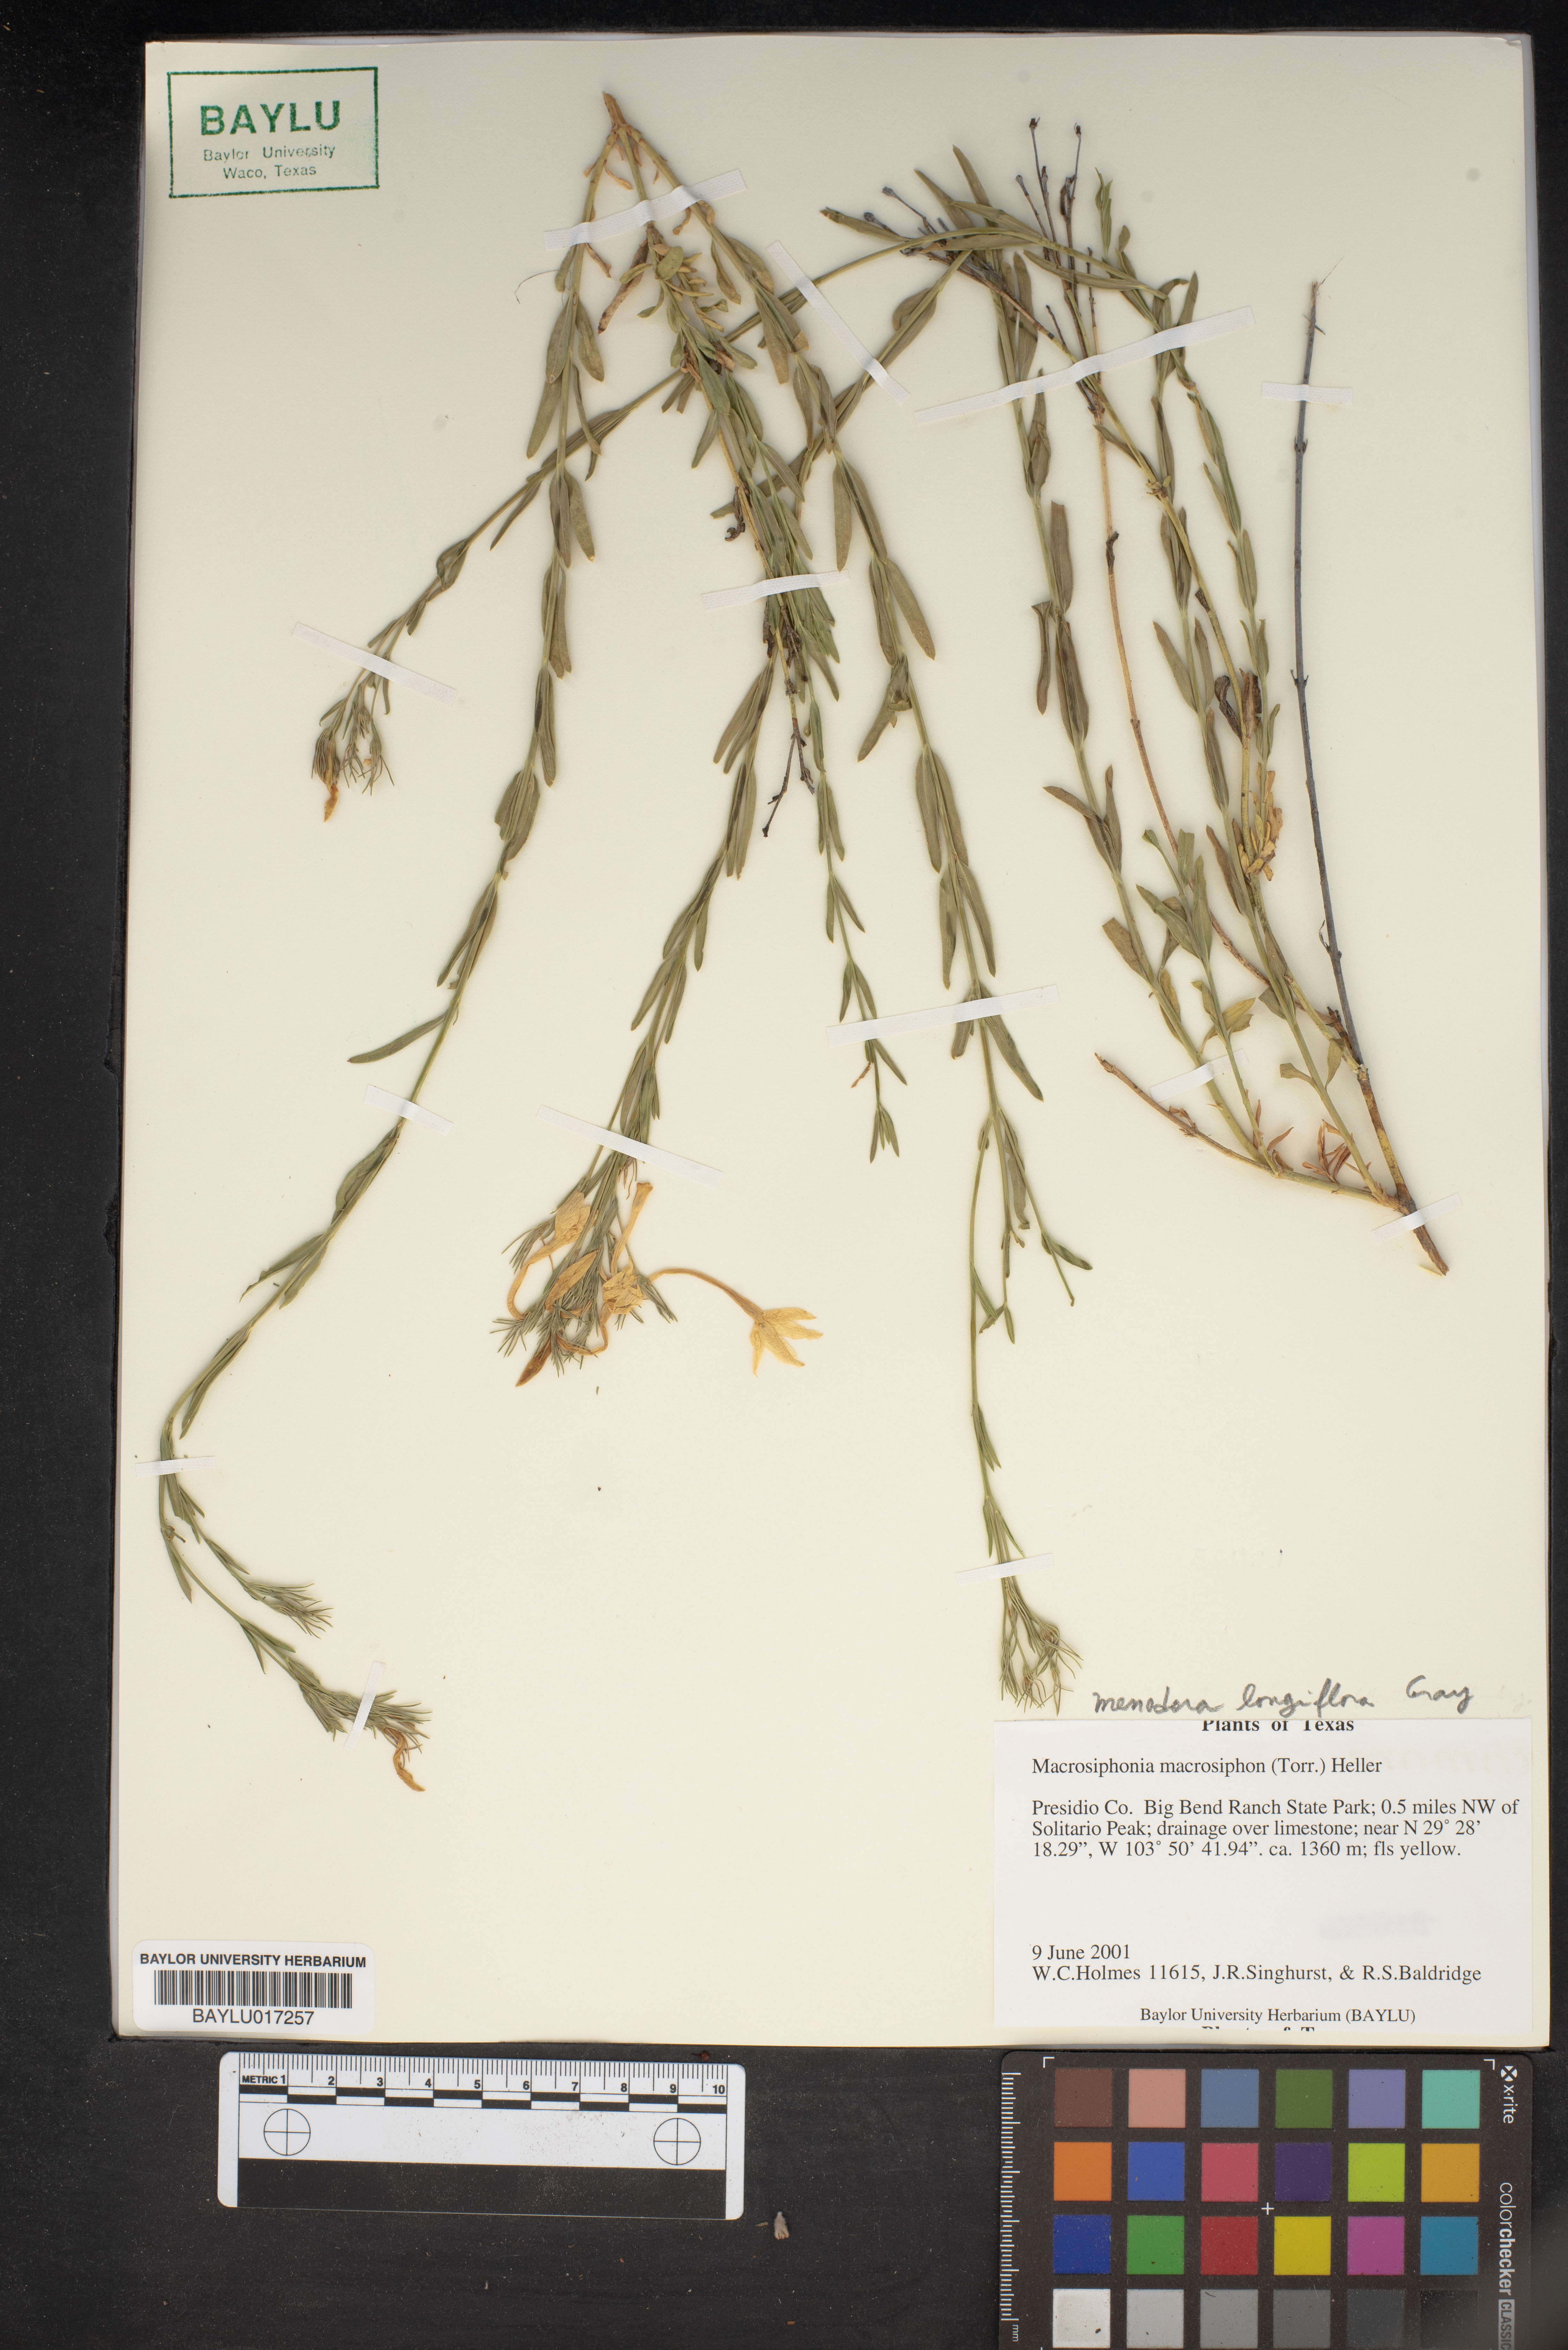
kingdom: Plantae
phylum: Tracheophyta
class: Magnoliopsida
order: Gentianales
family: Apocynaceae
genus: Mandevilla
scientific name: Mandevilla macrosiphon
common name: Plateau rocktrumpet
